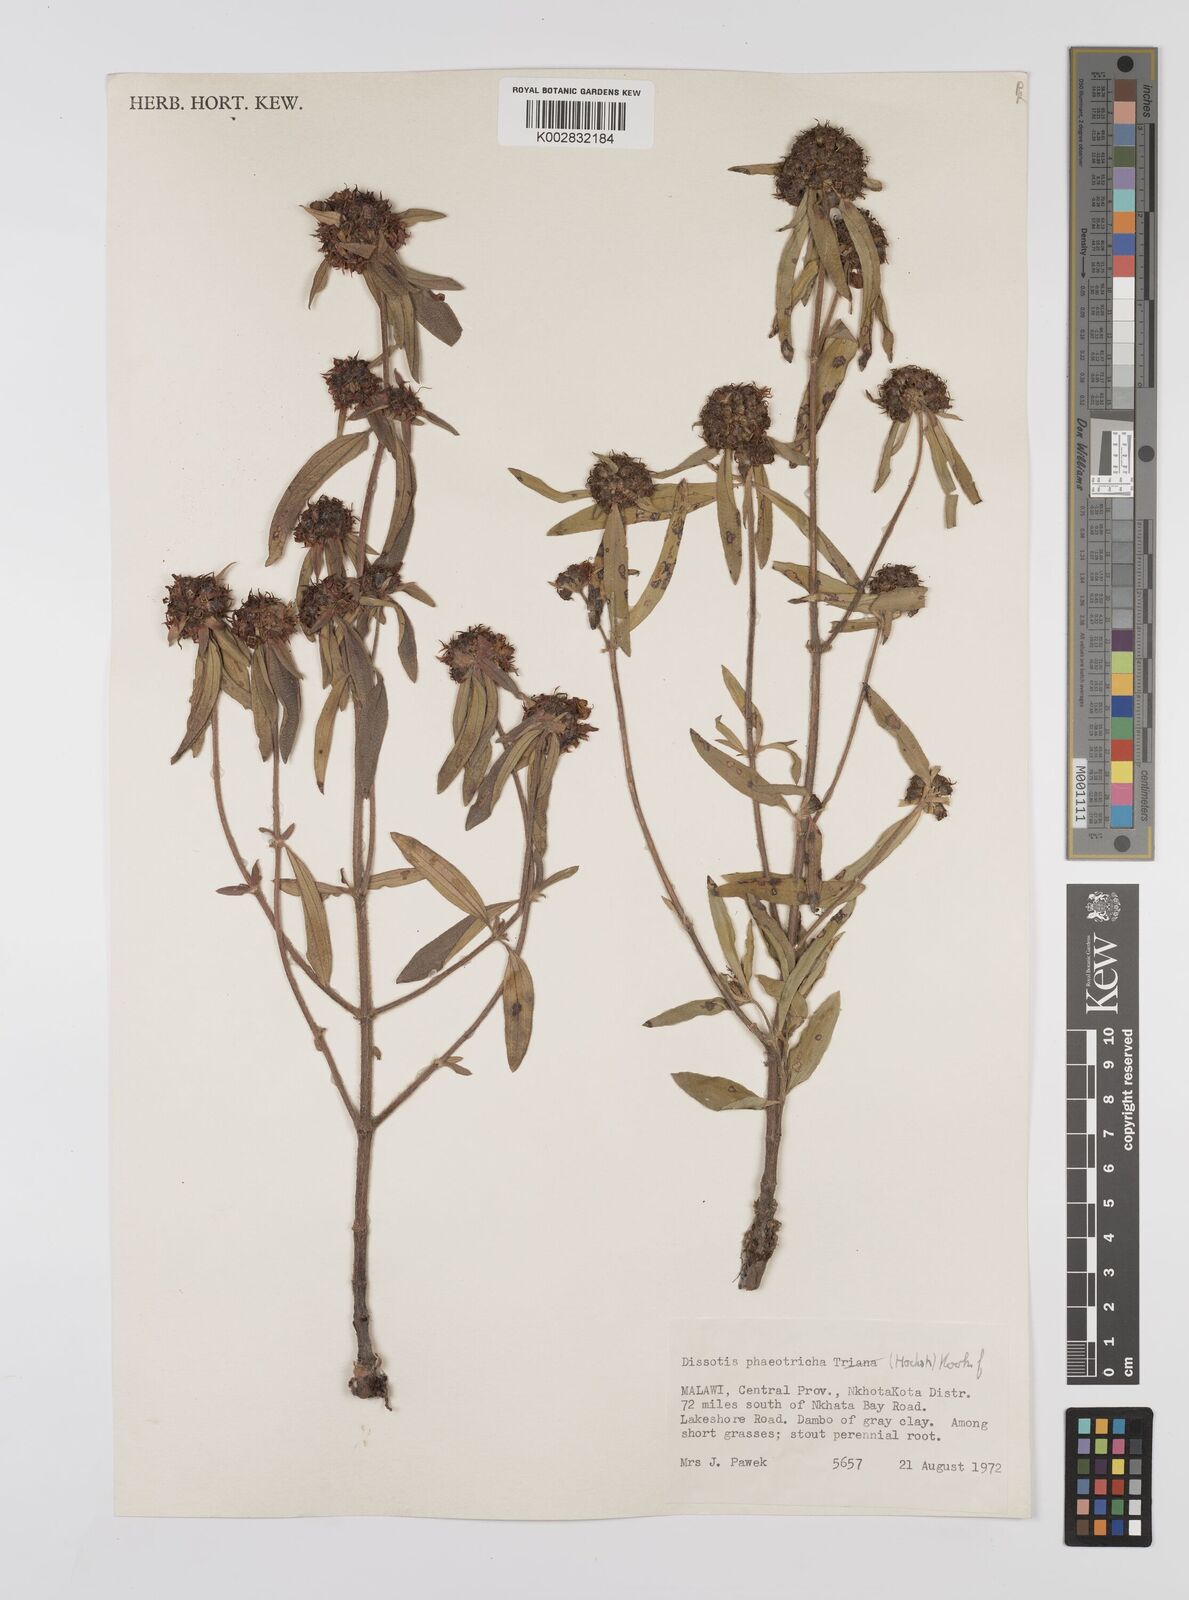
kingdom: Plantae
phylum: Tracheophyta
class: Magnoliopsida
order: Myrtales
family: Melastomataceae
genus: Antherotoma
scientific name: Antherotoma phaeotricha
